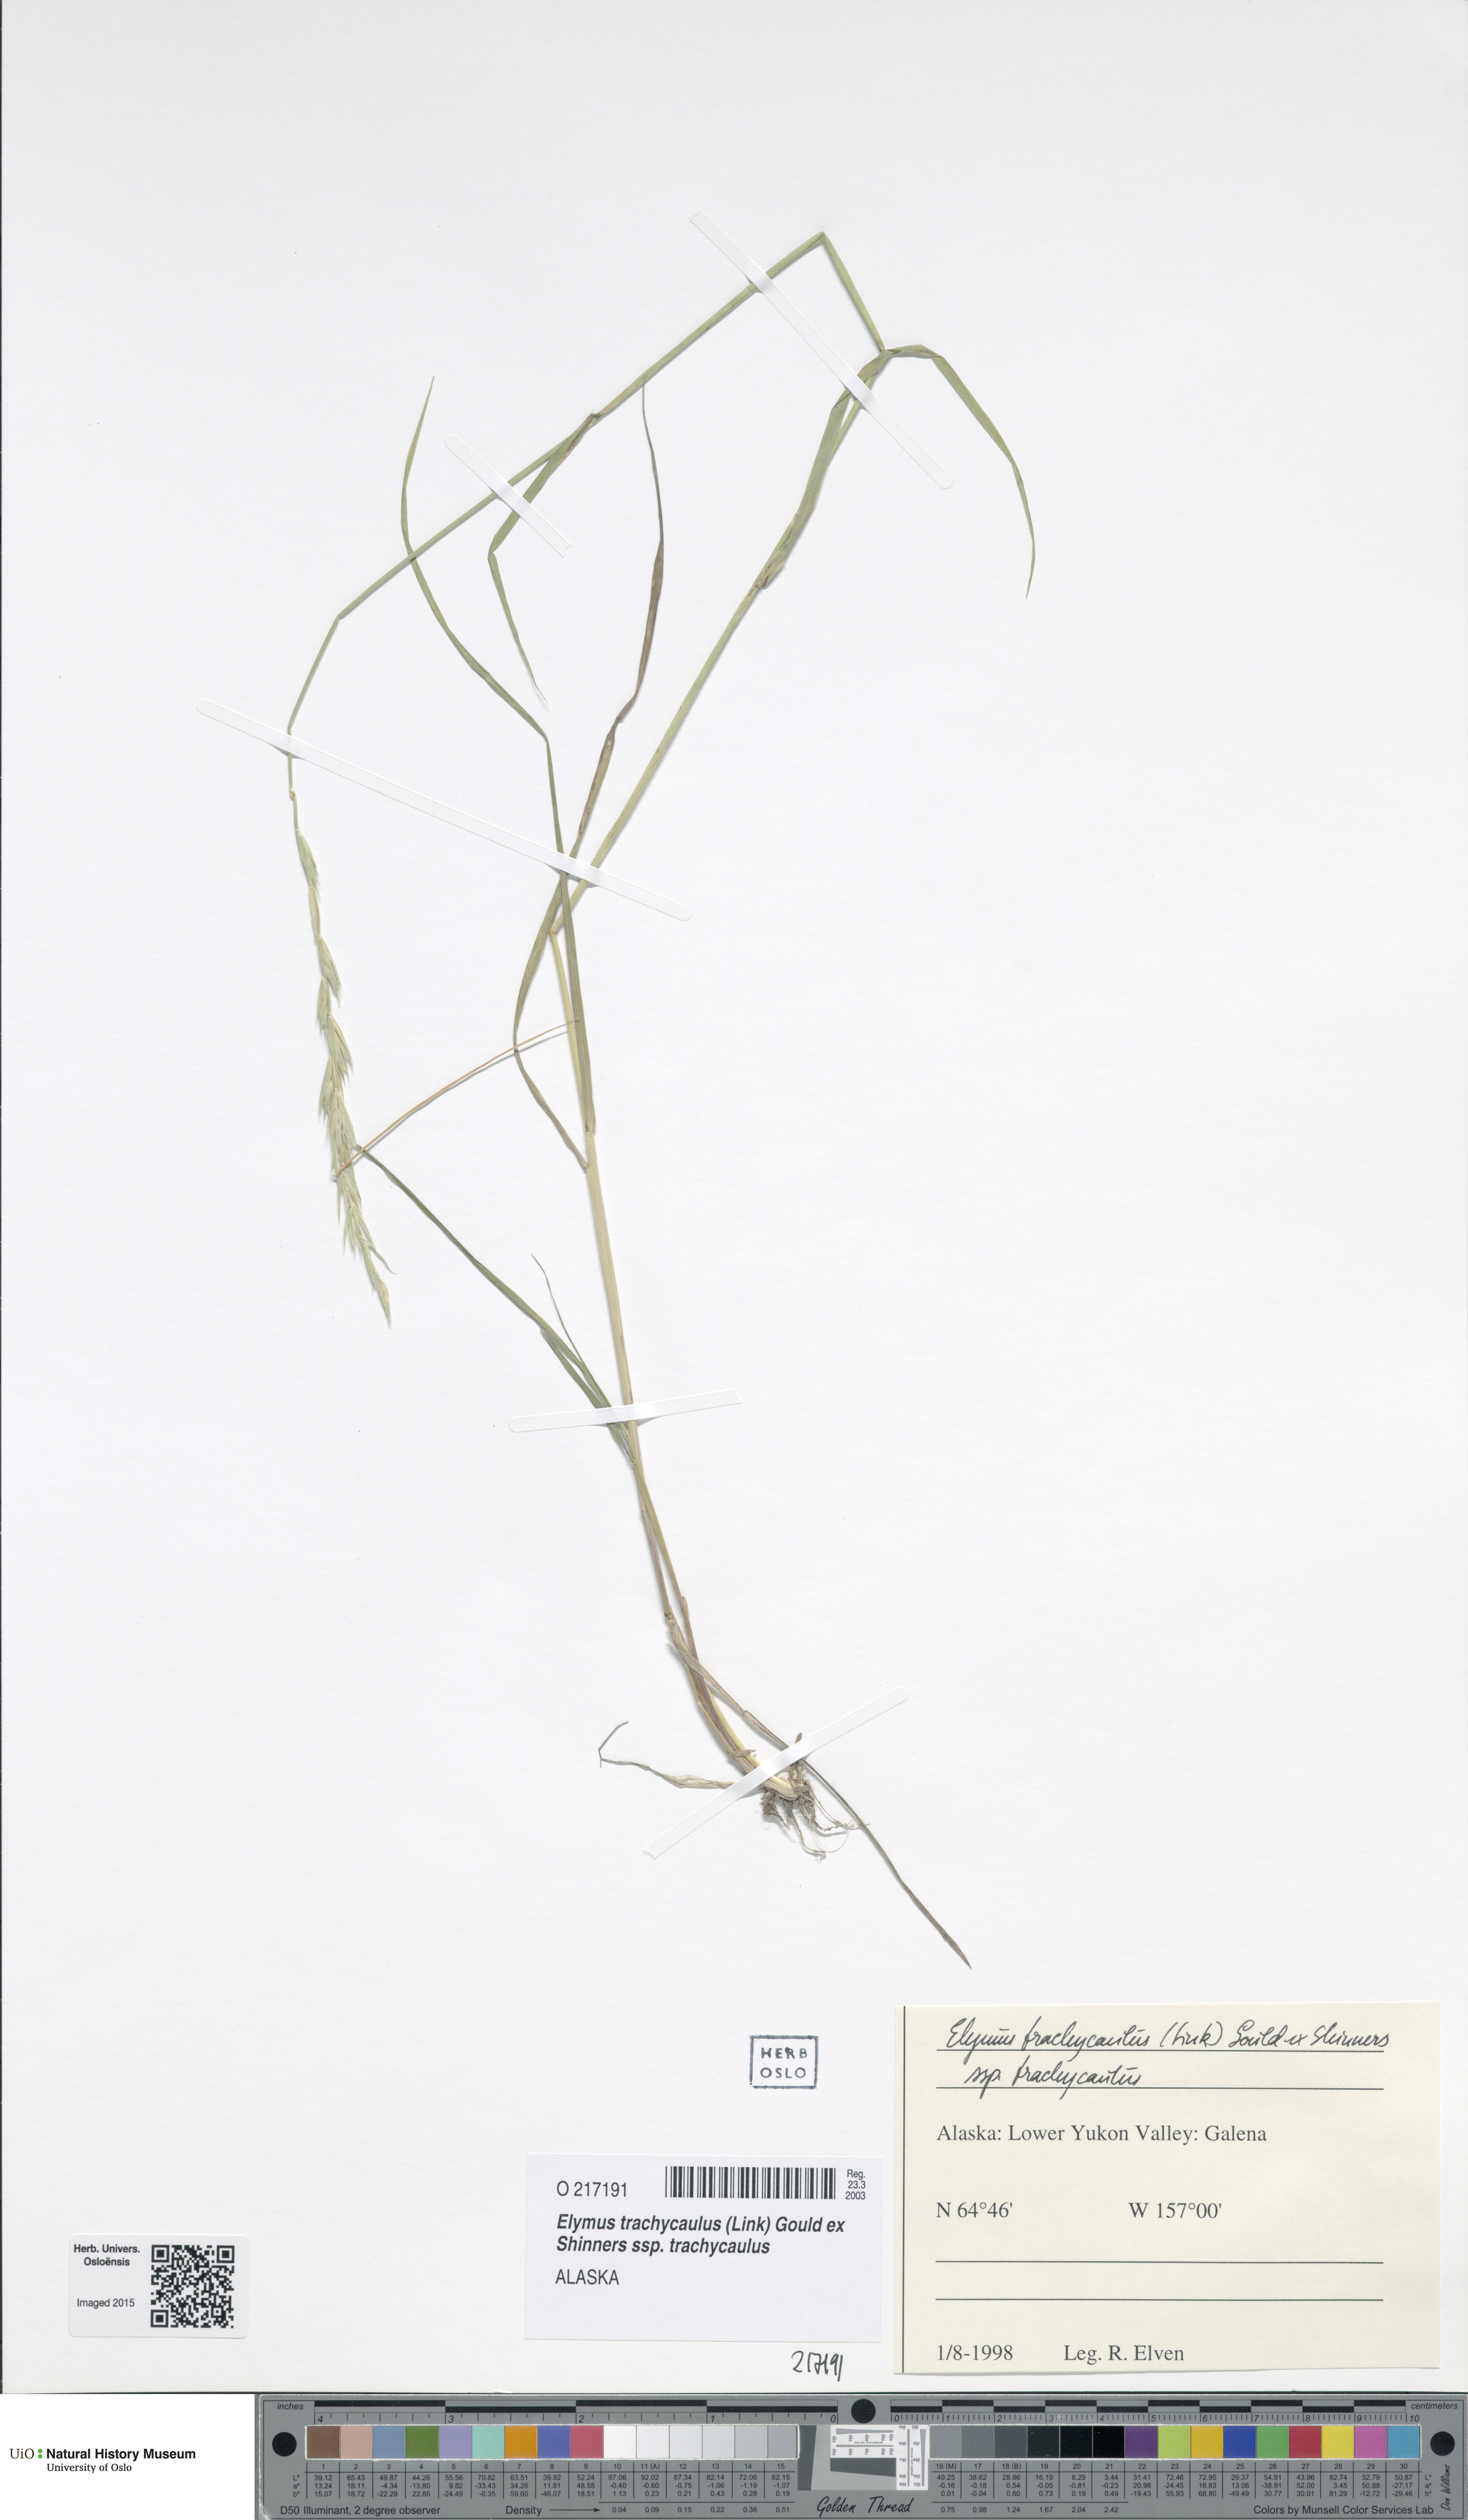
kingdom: Plantae
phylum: Tracheophyta
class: Liliopsida
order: Poales
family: Poaceae
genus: Elymus
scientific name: Elymus violaceus
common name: Arctic wheatgrass
